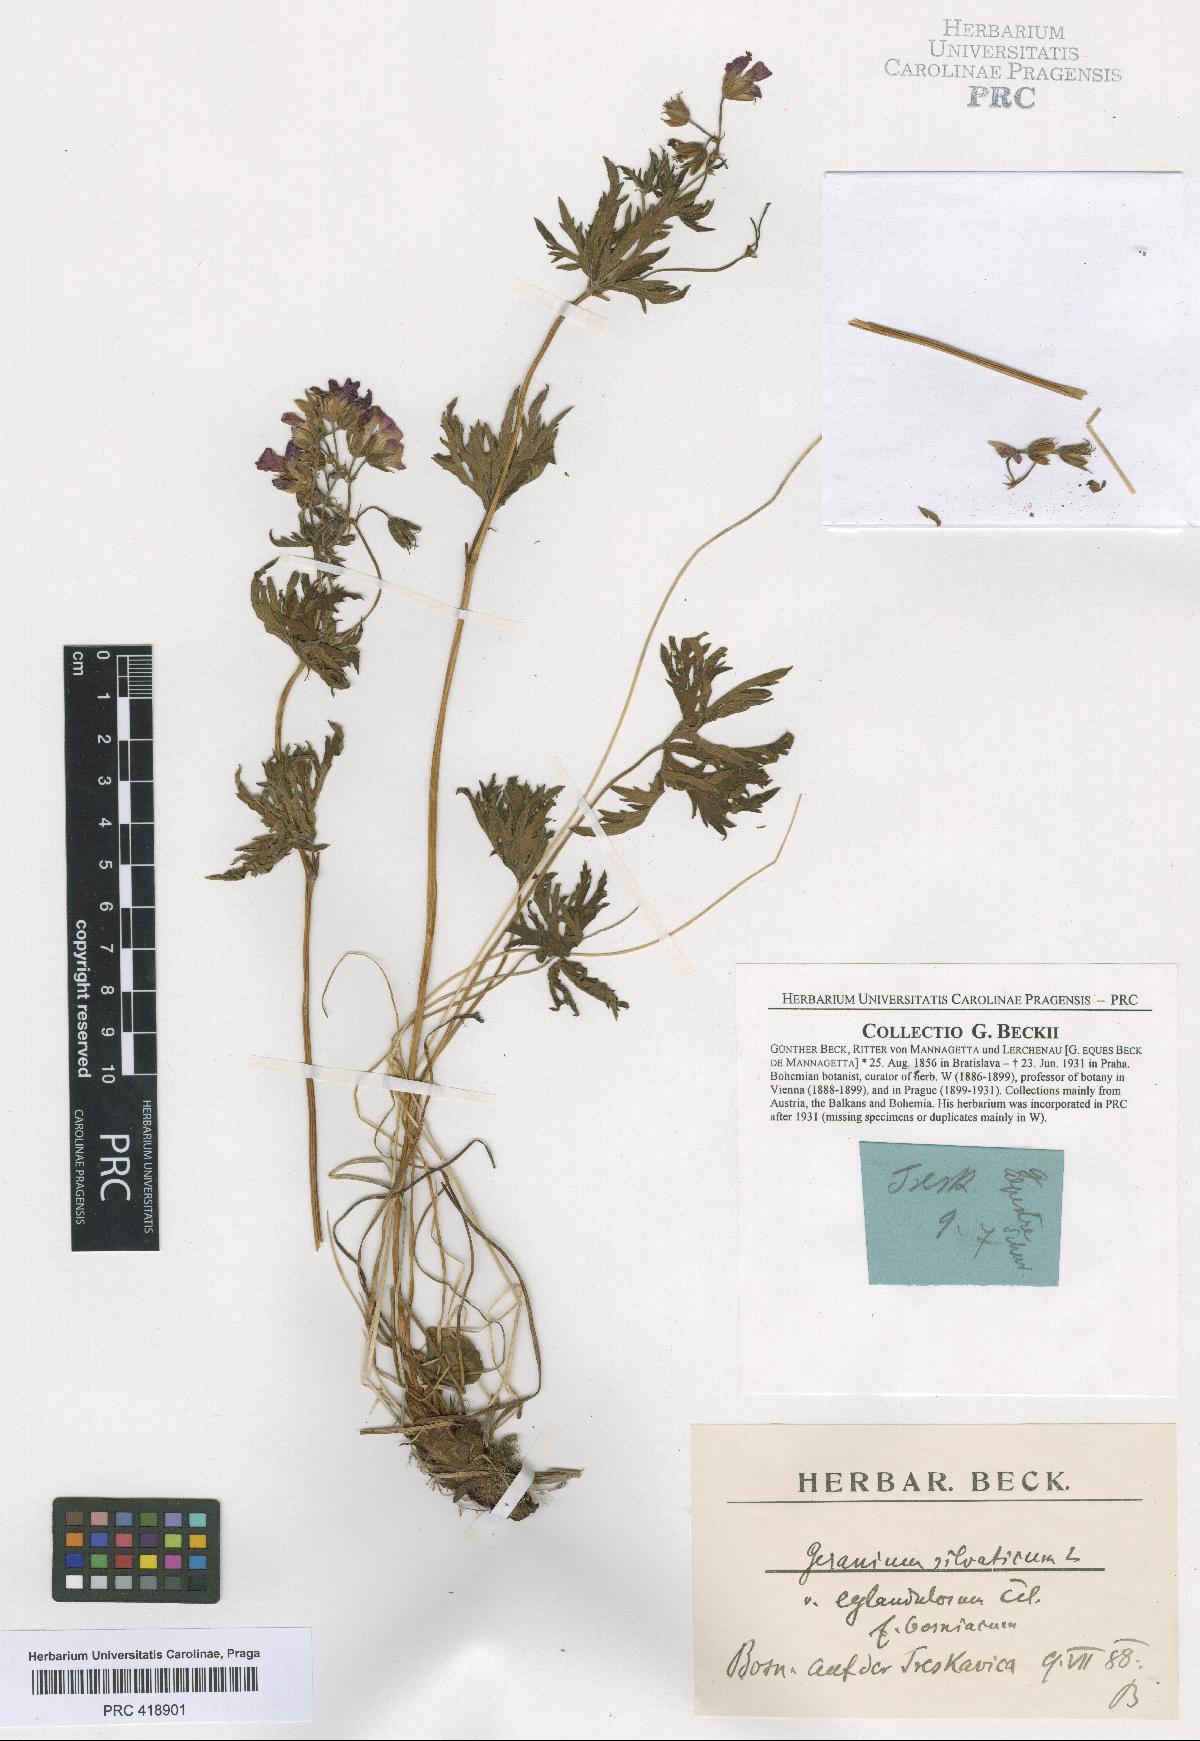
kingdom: Plantae
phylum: Tracheophyta
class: Magnoliopsida
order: Geraniales
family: Geraniaceae
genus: Geranium
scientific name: Geranium caeruleatum
